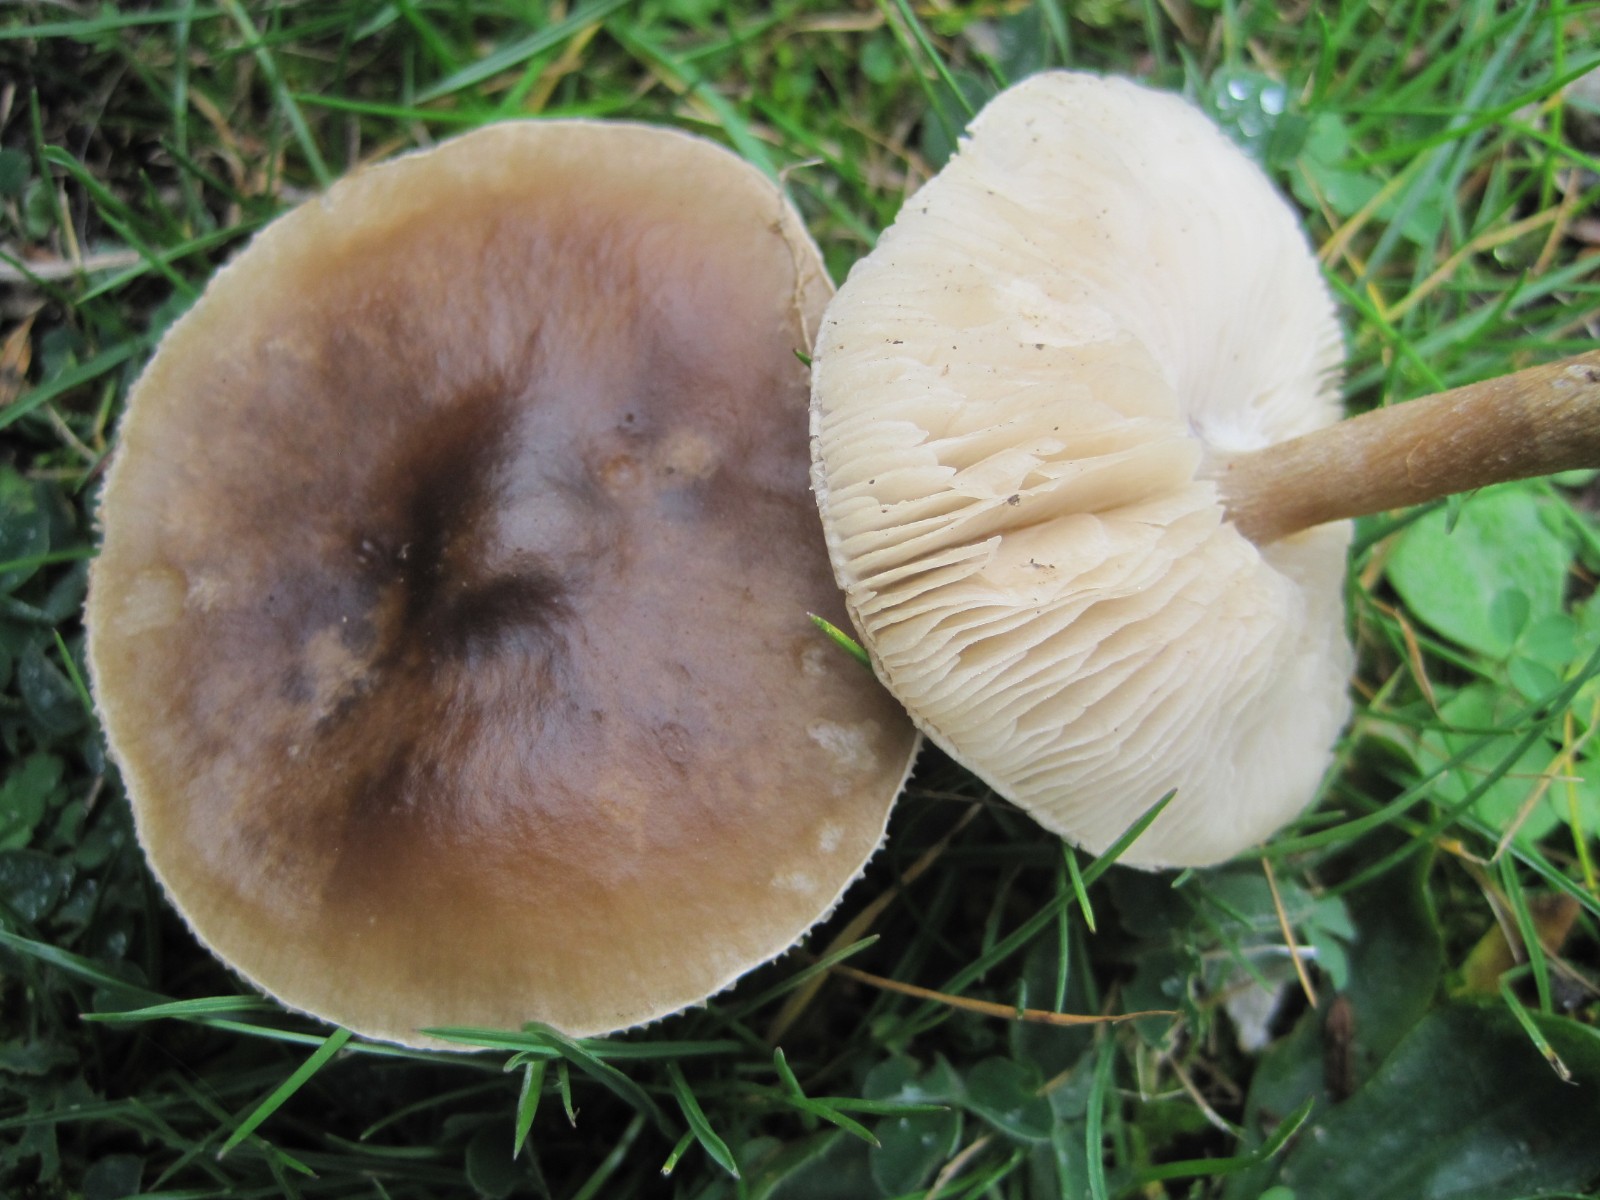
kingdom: Fungi
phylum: Basidiomycota
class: Agaricomycetes
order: Agaricales
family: Tricholomataceae
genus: Melanoleuca
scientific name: Melanoleuca
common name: munkehat
